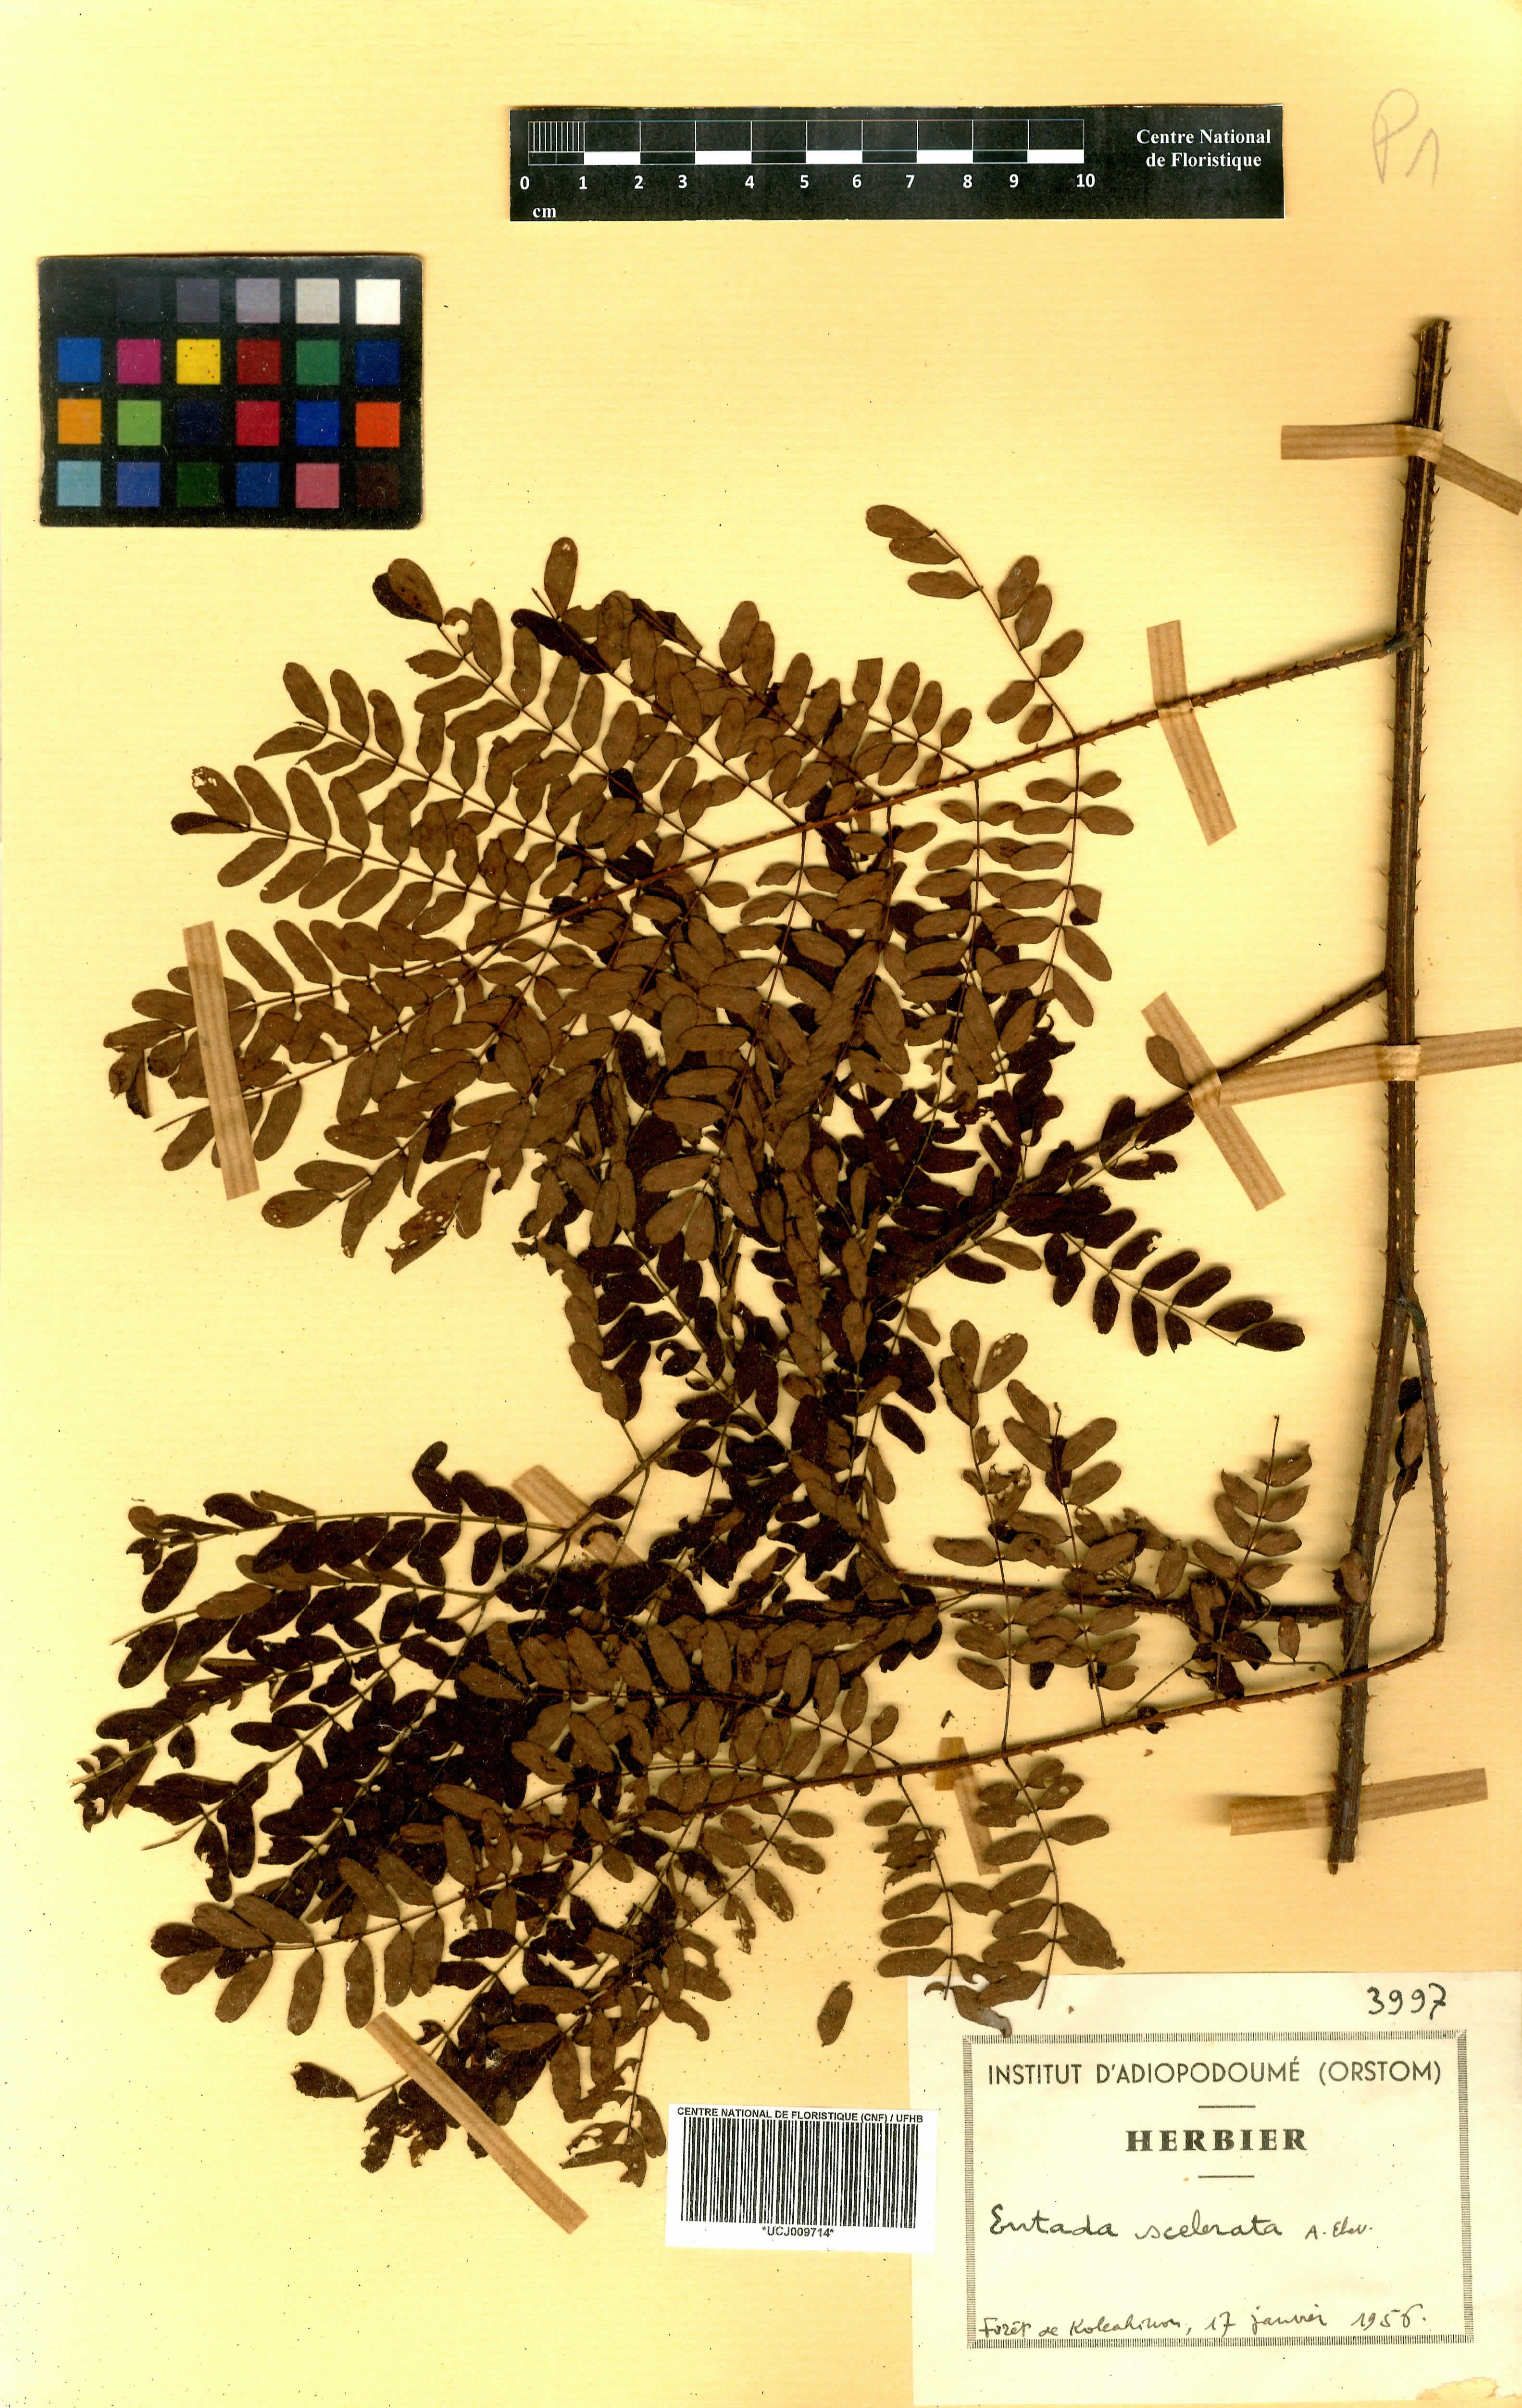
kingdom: Plantae
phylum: Tracheophyta
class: Magnoliopsida
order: Fabales
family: Fabaceae
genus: Adenopodia
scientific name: Adenopodia scelerata
